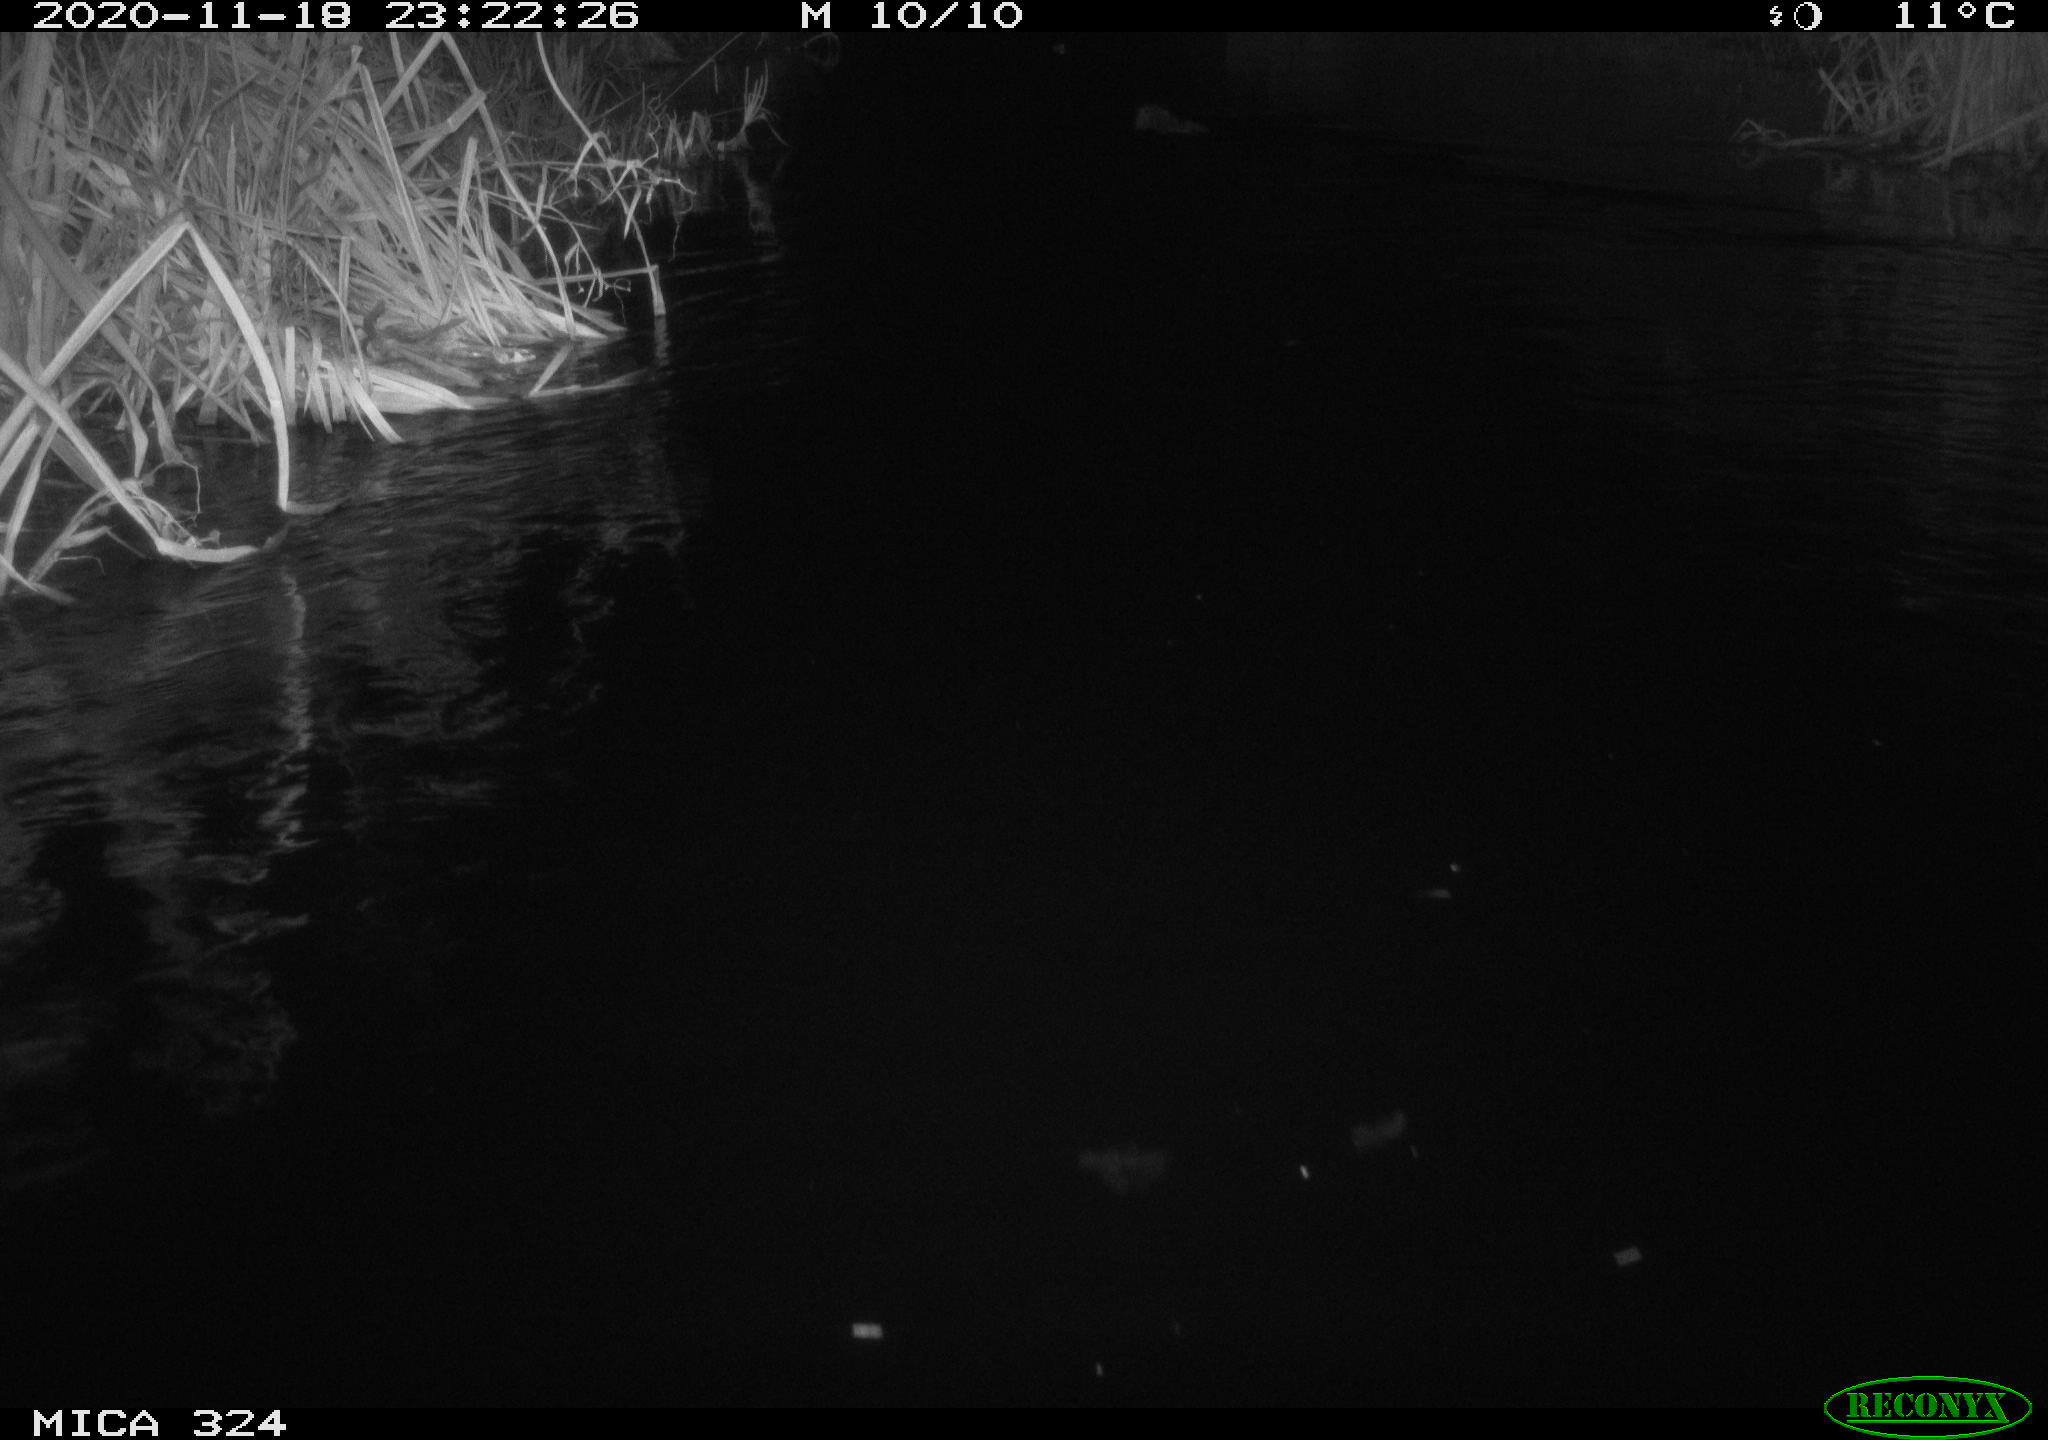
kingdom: Animalia
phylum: Chordata
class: Mammalia
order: Rodentia
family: Myocastoridae
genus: Myocastor
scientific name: Myocastor coypus
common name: Coypu
